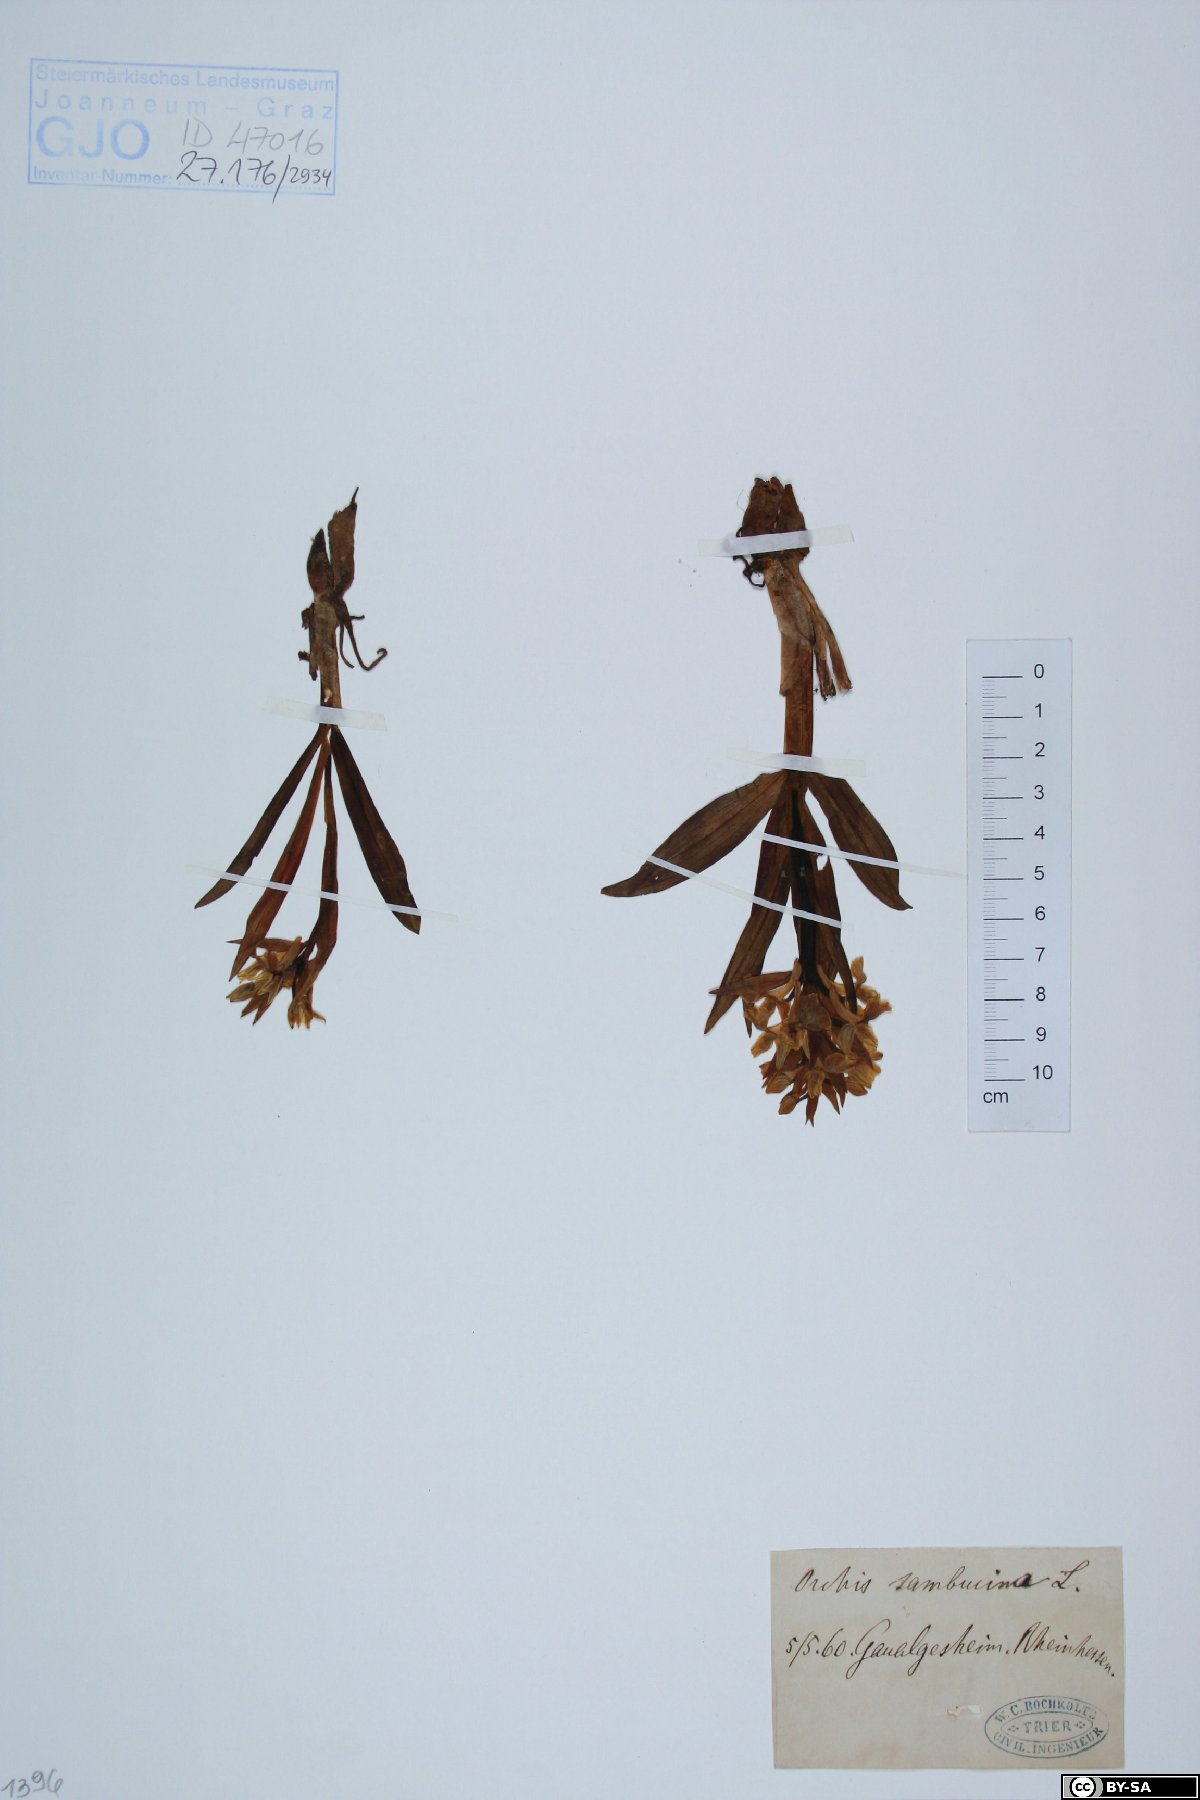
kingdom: Plantae
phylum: Tracheophyta
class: Liliopsida
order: Asparagales
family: Orchidaceae
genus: Dactylorhiza
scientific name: Dactylorhiza sambucina
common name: Elder-flowered orchid
